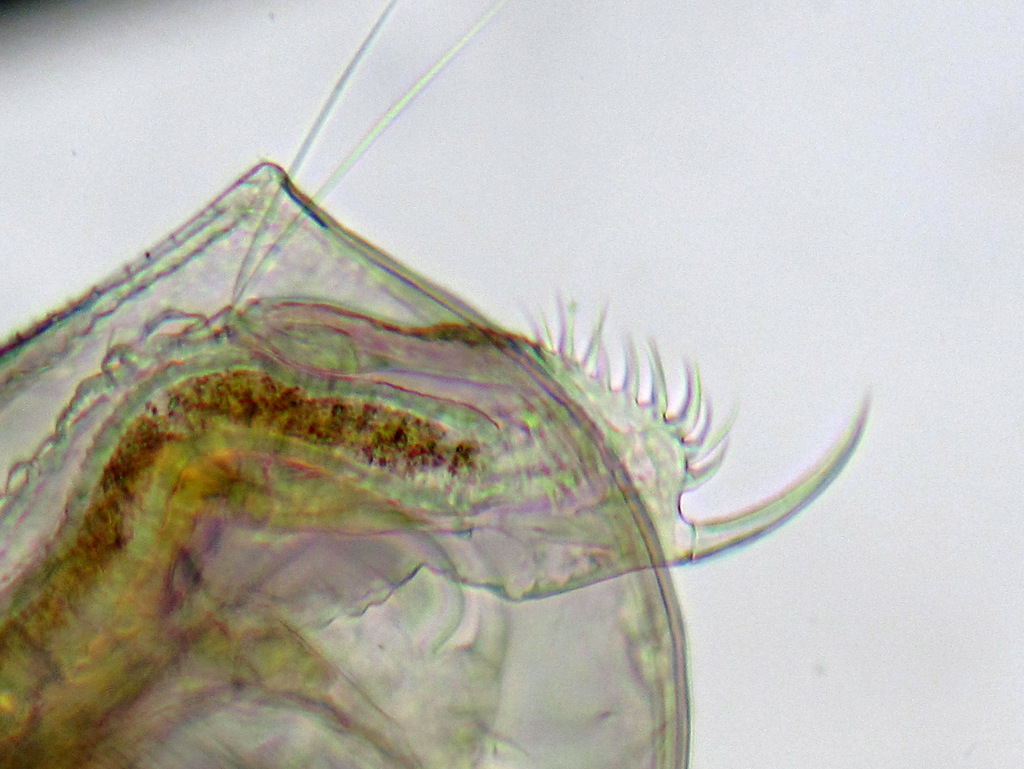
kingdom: Animalia
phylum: Arthropoda
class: Branchiopoda
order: Diplostraca
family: Daphniidae
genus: Ceriodaphnia
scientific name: Ceriodaphnia quadrangula
